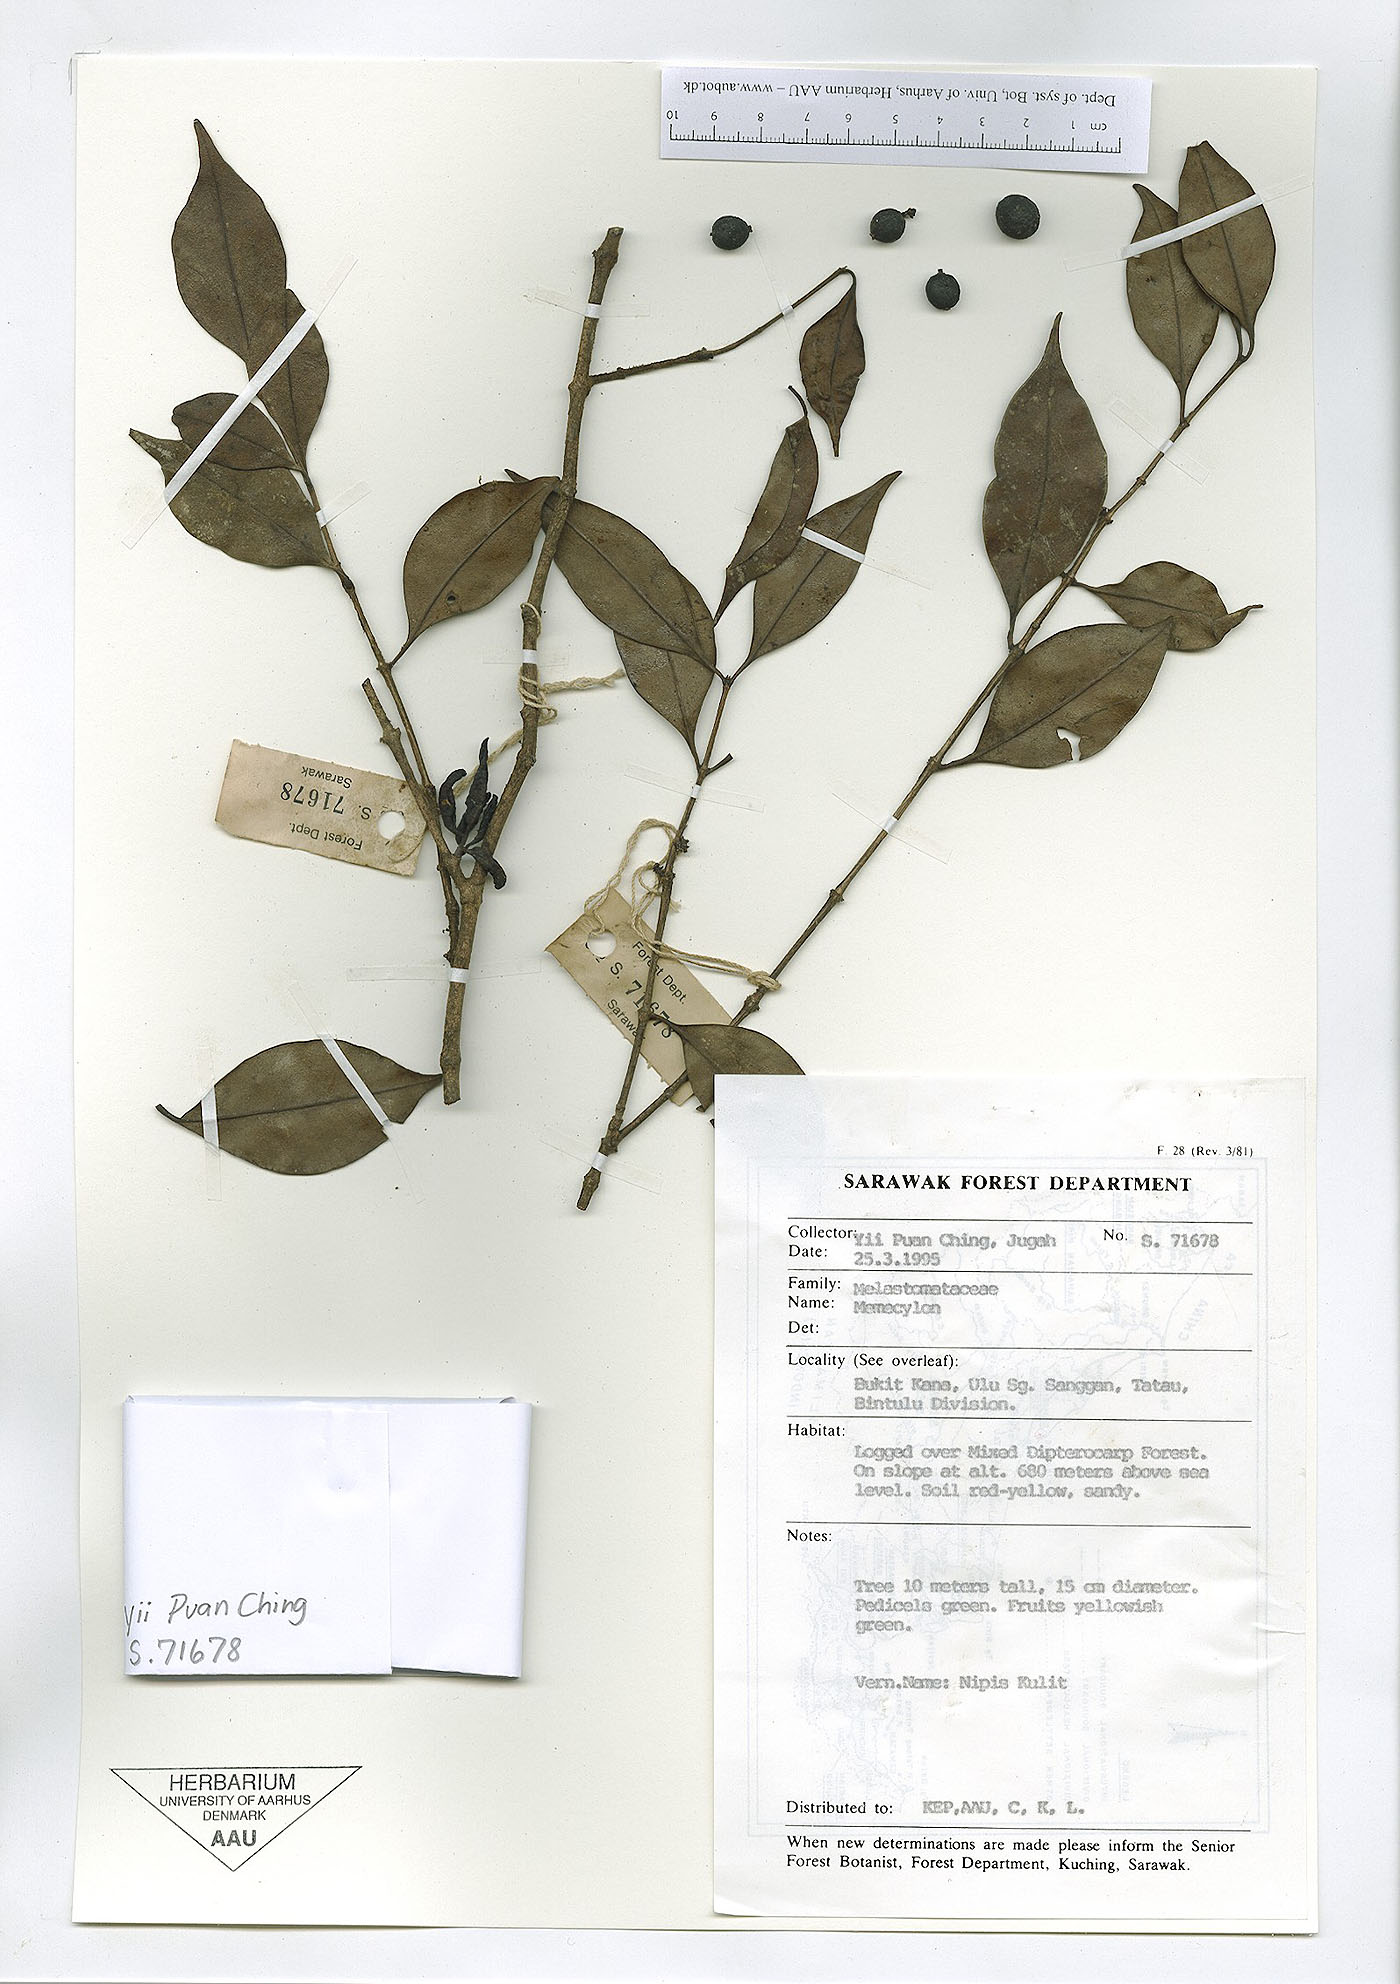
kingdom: Plantae
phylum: Tracheophyta
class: Magnoliopsida
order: Myrtales
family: Melastomataceae
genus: Memecylon
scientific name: Memecylon
